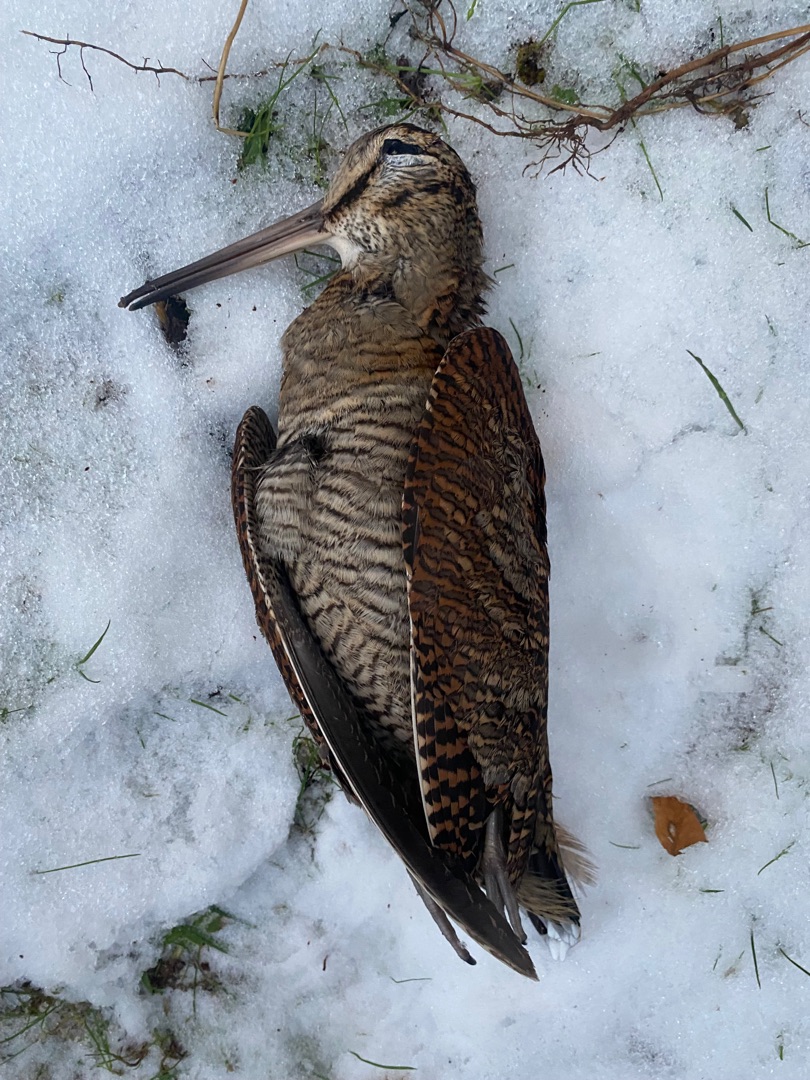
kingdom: Animalia
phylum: Chordata
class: Aves
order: Charadriiformes
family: Scolopacidae
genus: Scolopax
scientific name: Scolopax rusticola
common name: Skovsneppe
